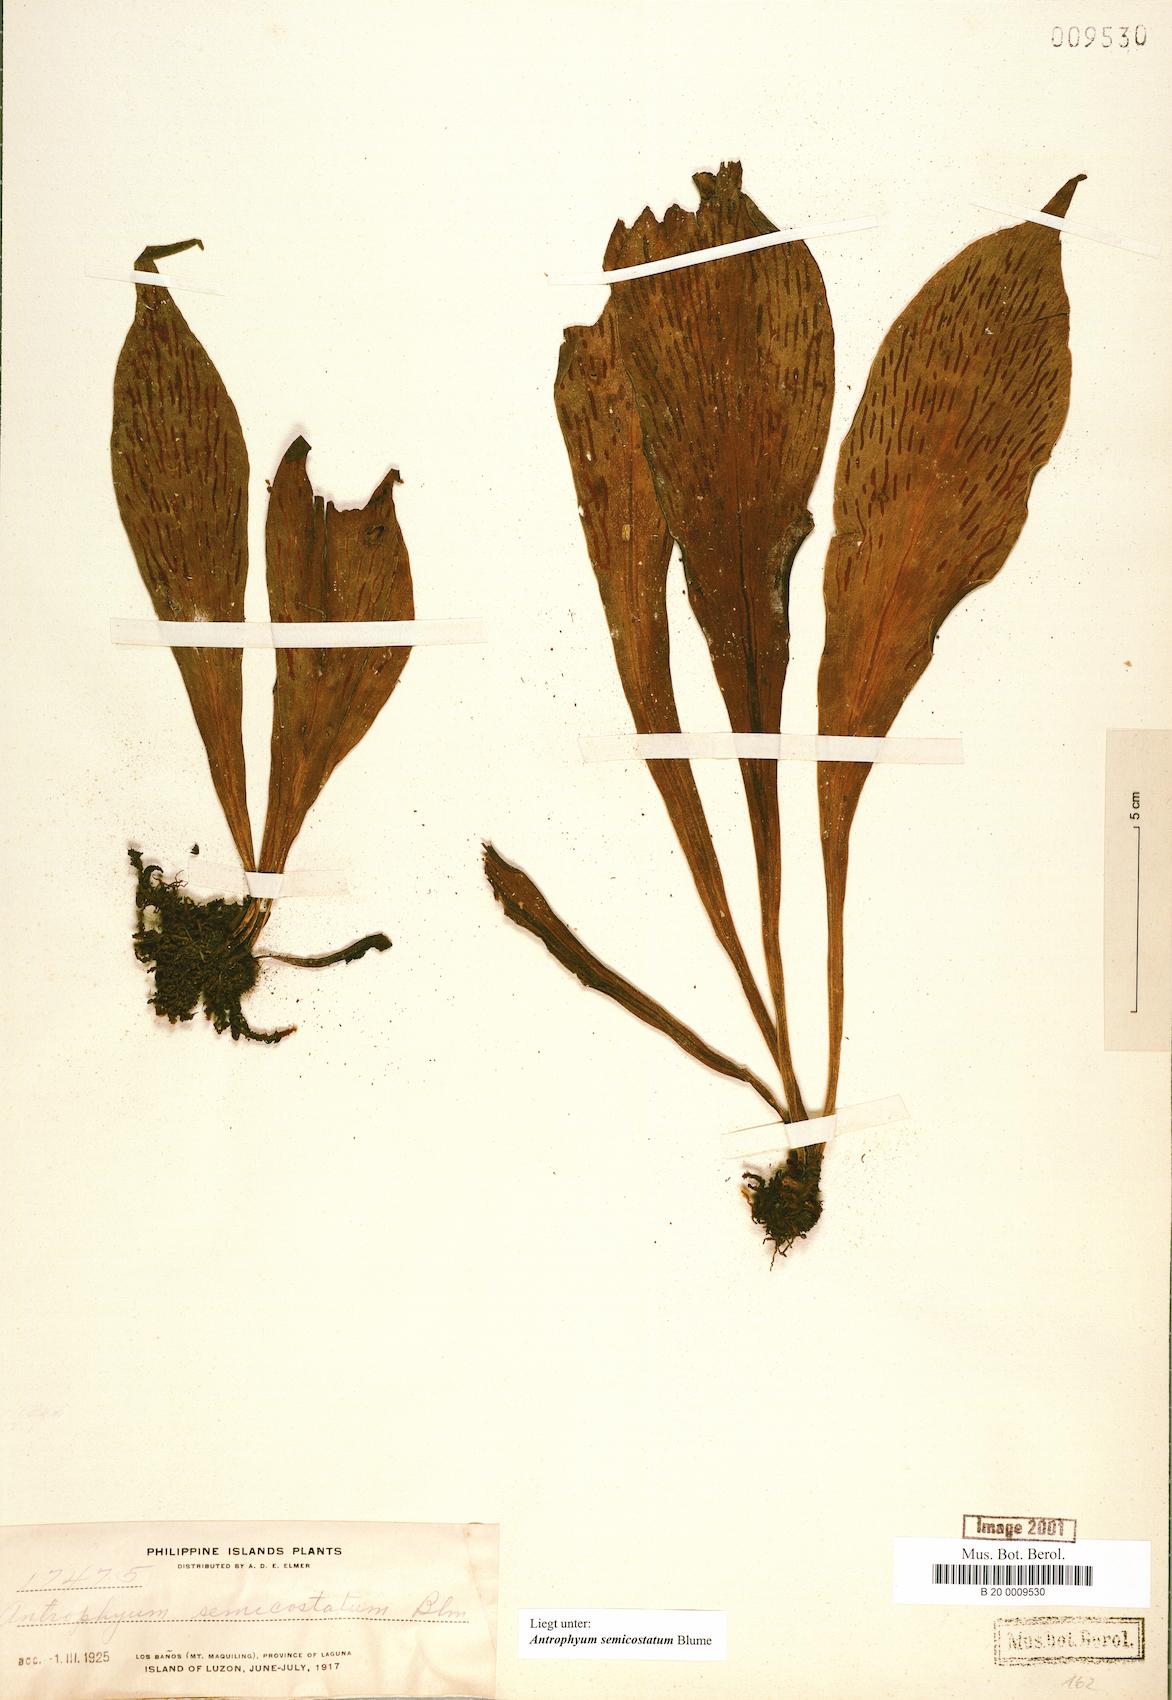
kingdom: Plantae
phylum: Tracheophyta
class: Polypodiopsida
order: Polypodiales
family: Pteridaceae
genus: Antrophyum
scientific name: Antrophyum semicostatum
